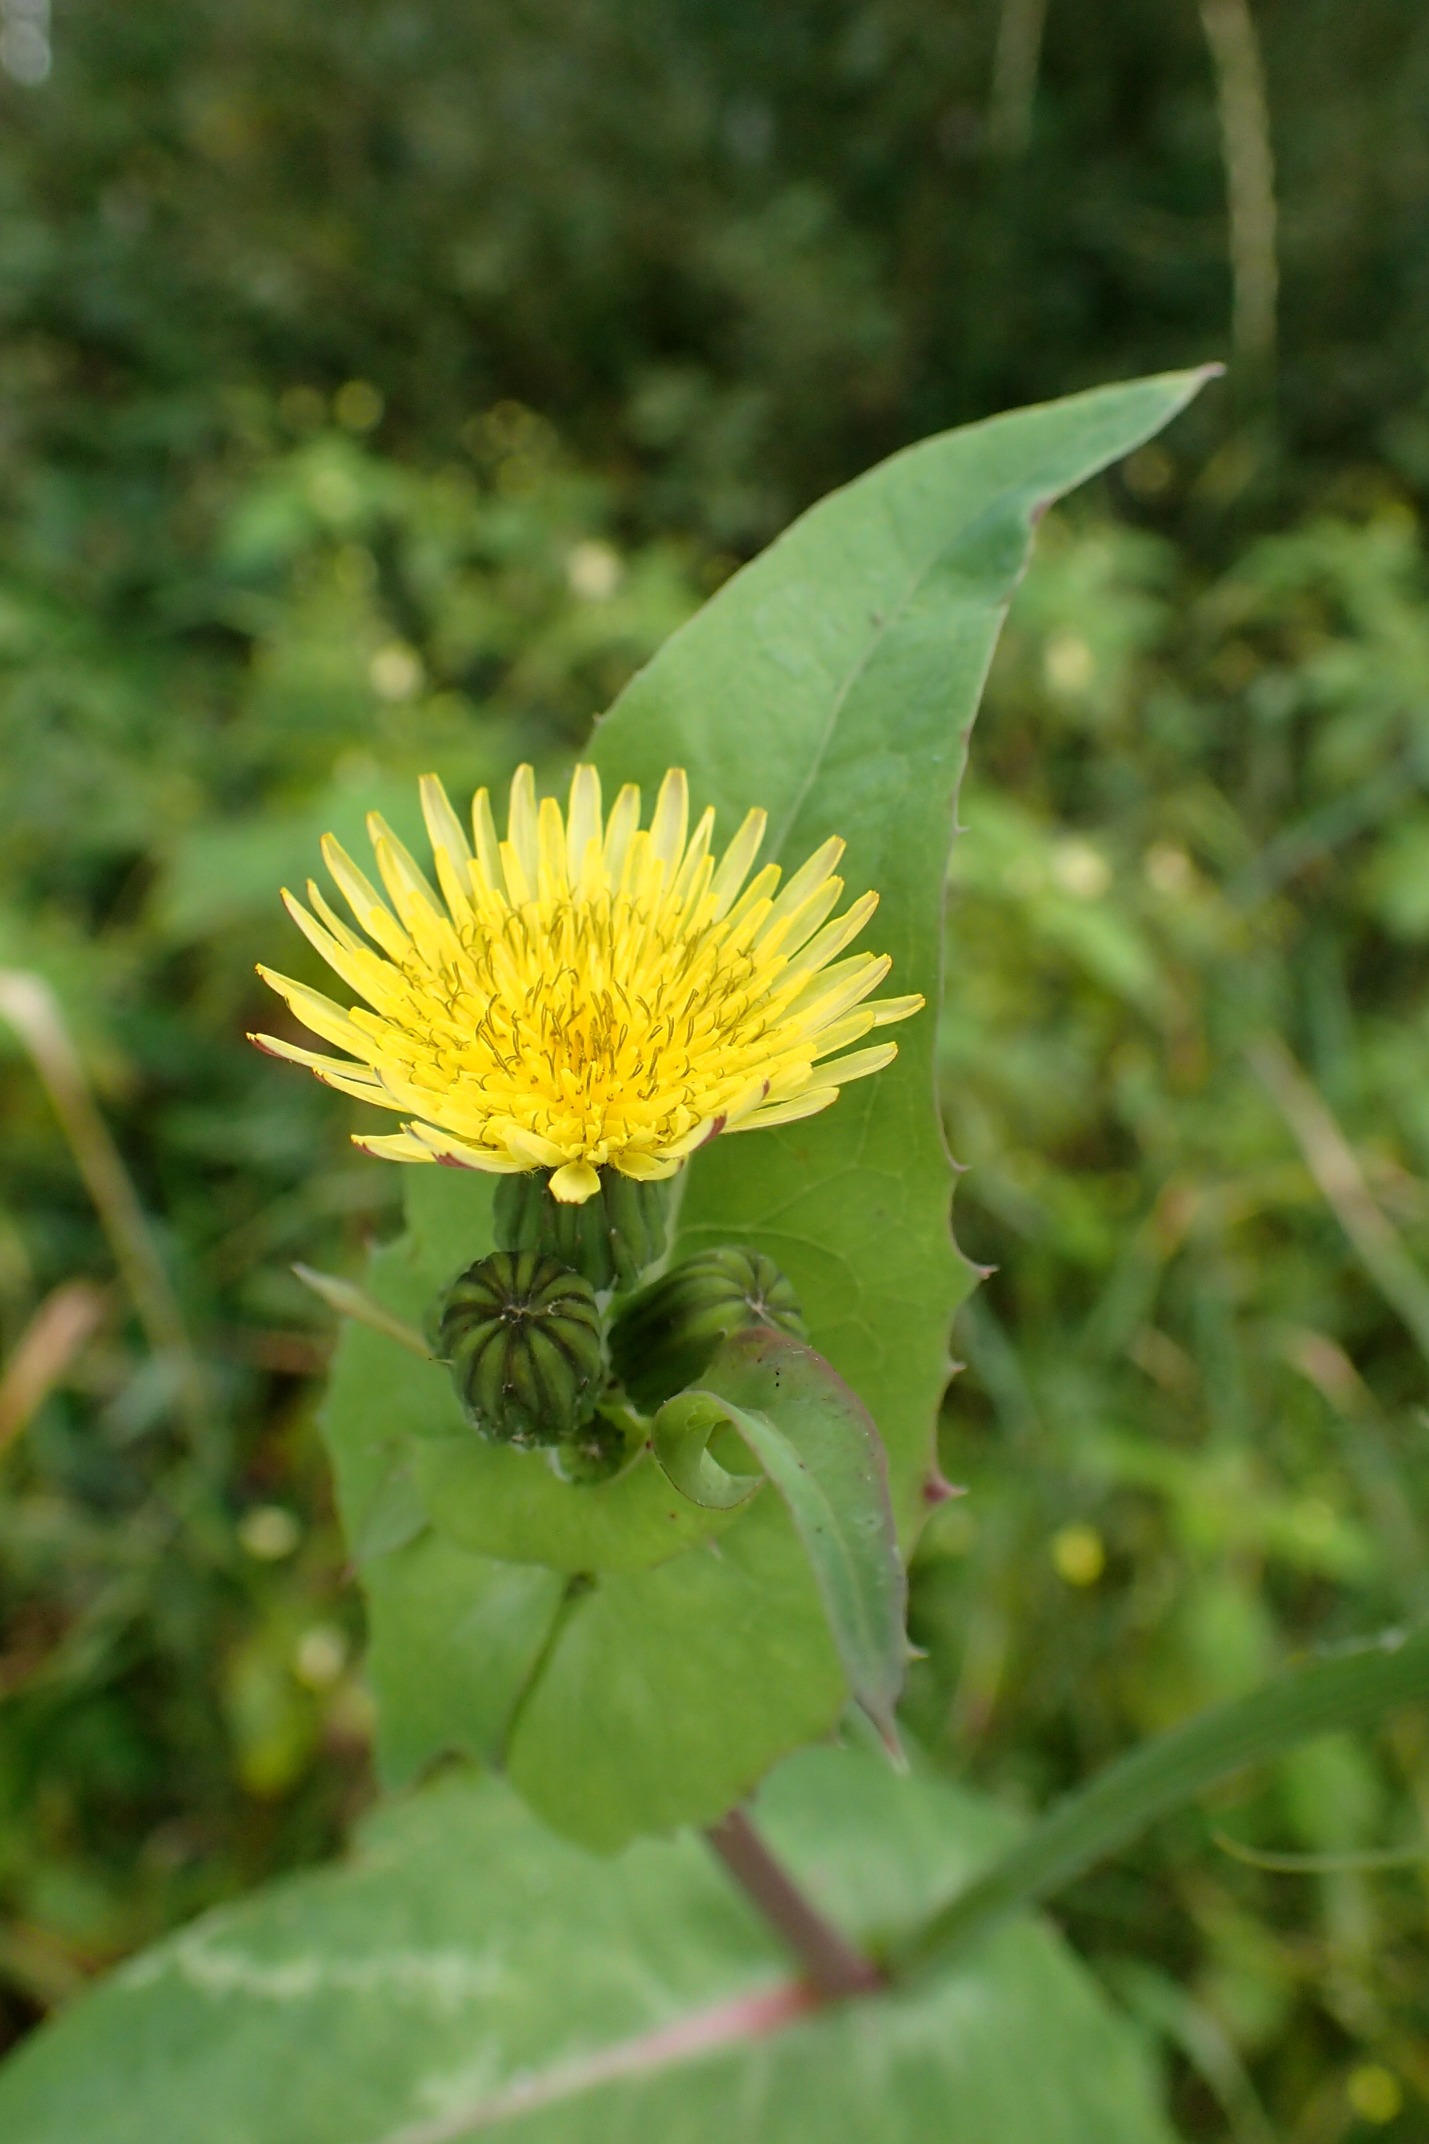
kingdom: Plantae
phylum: Tracheophyta
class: Magnoliopsida
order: Asterales
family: Asteraceae
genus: Sonchus
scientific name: Sonchus oleraceus
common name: Almindelig svinemælk
